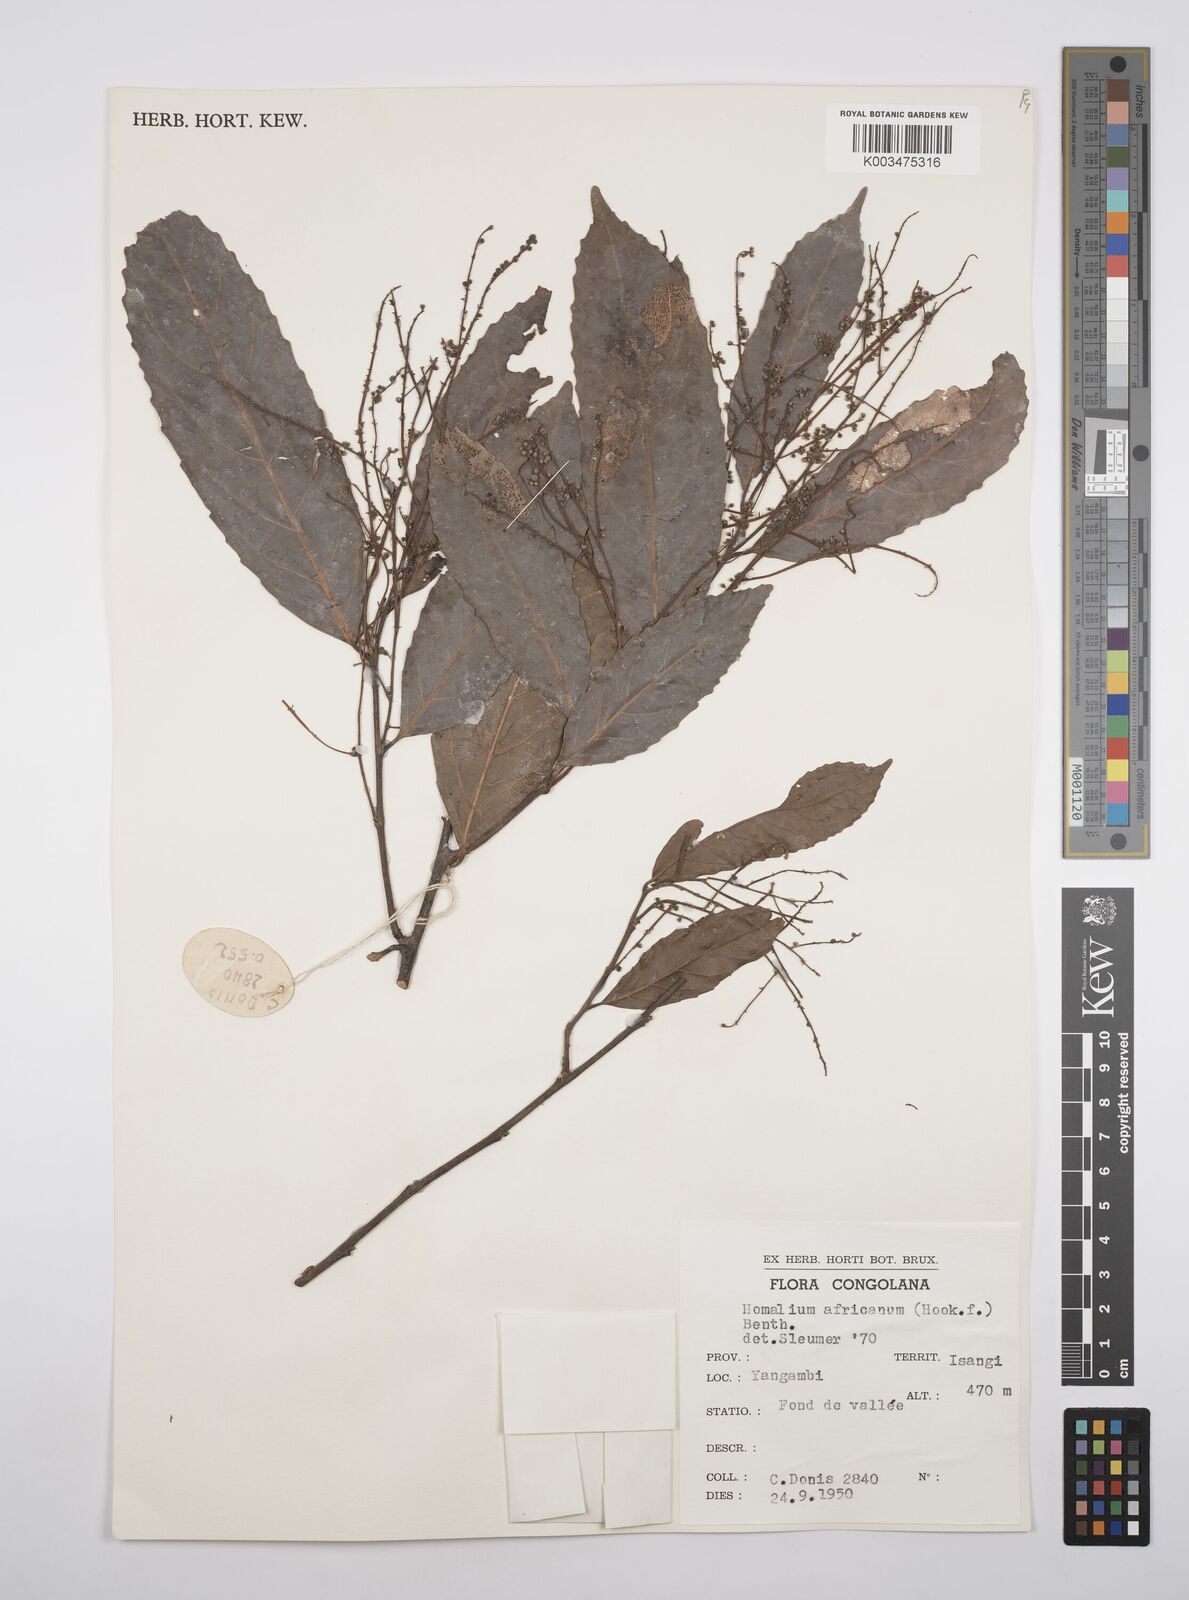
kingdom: Plantae
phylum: Tracheophyta
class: Magnoliopsida
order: Malpighiales
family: Salicaceae
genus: Homalium
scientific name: Homalium africanum
